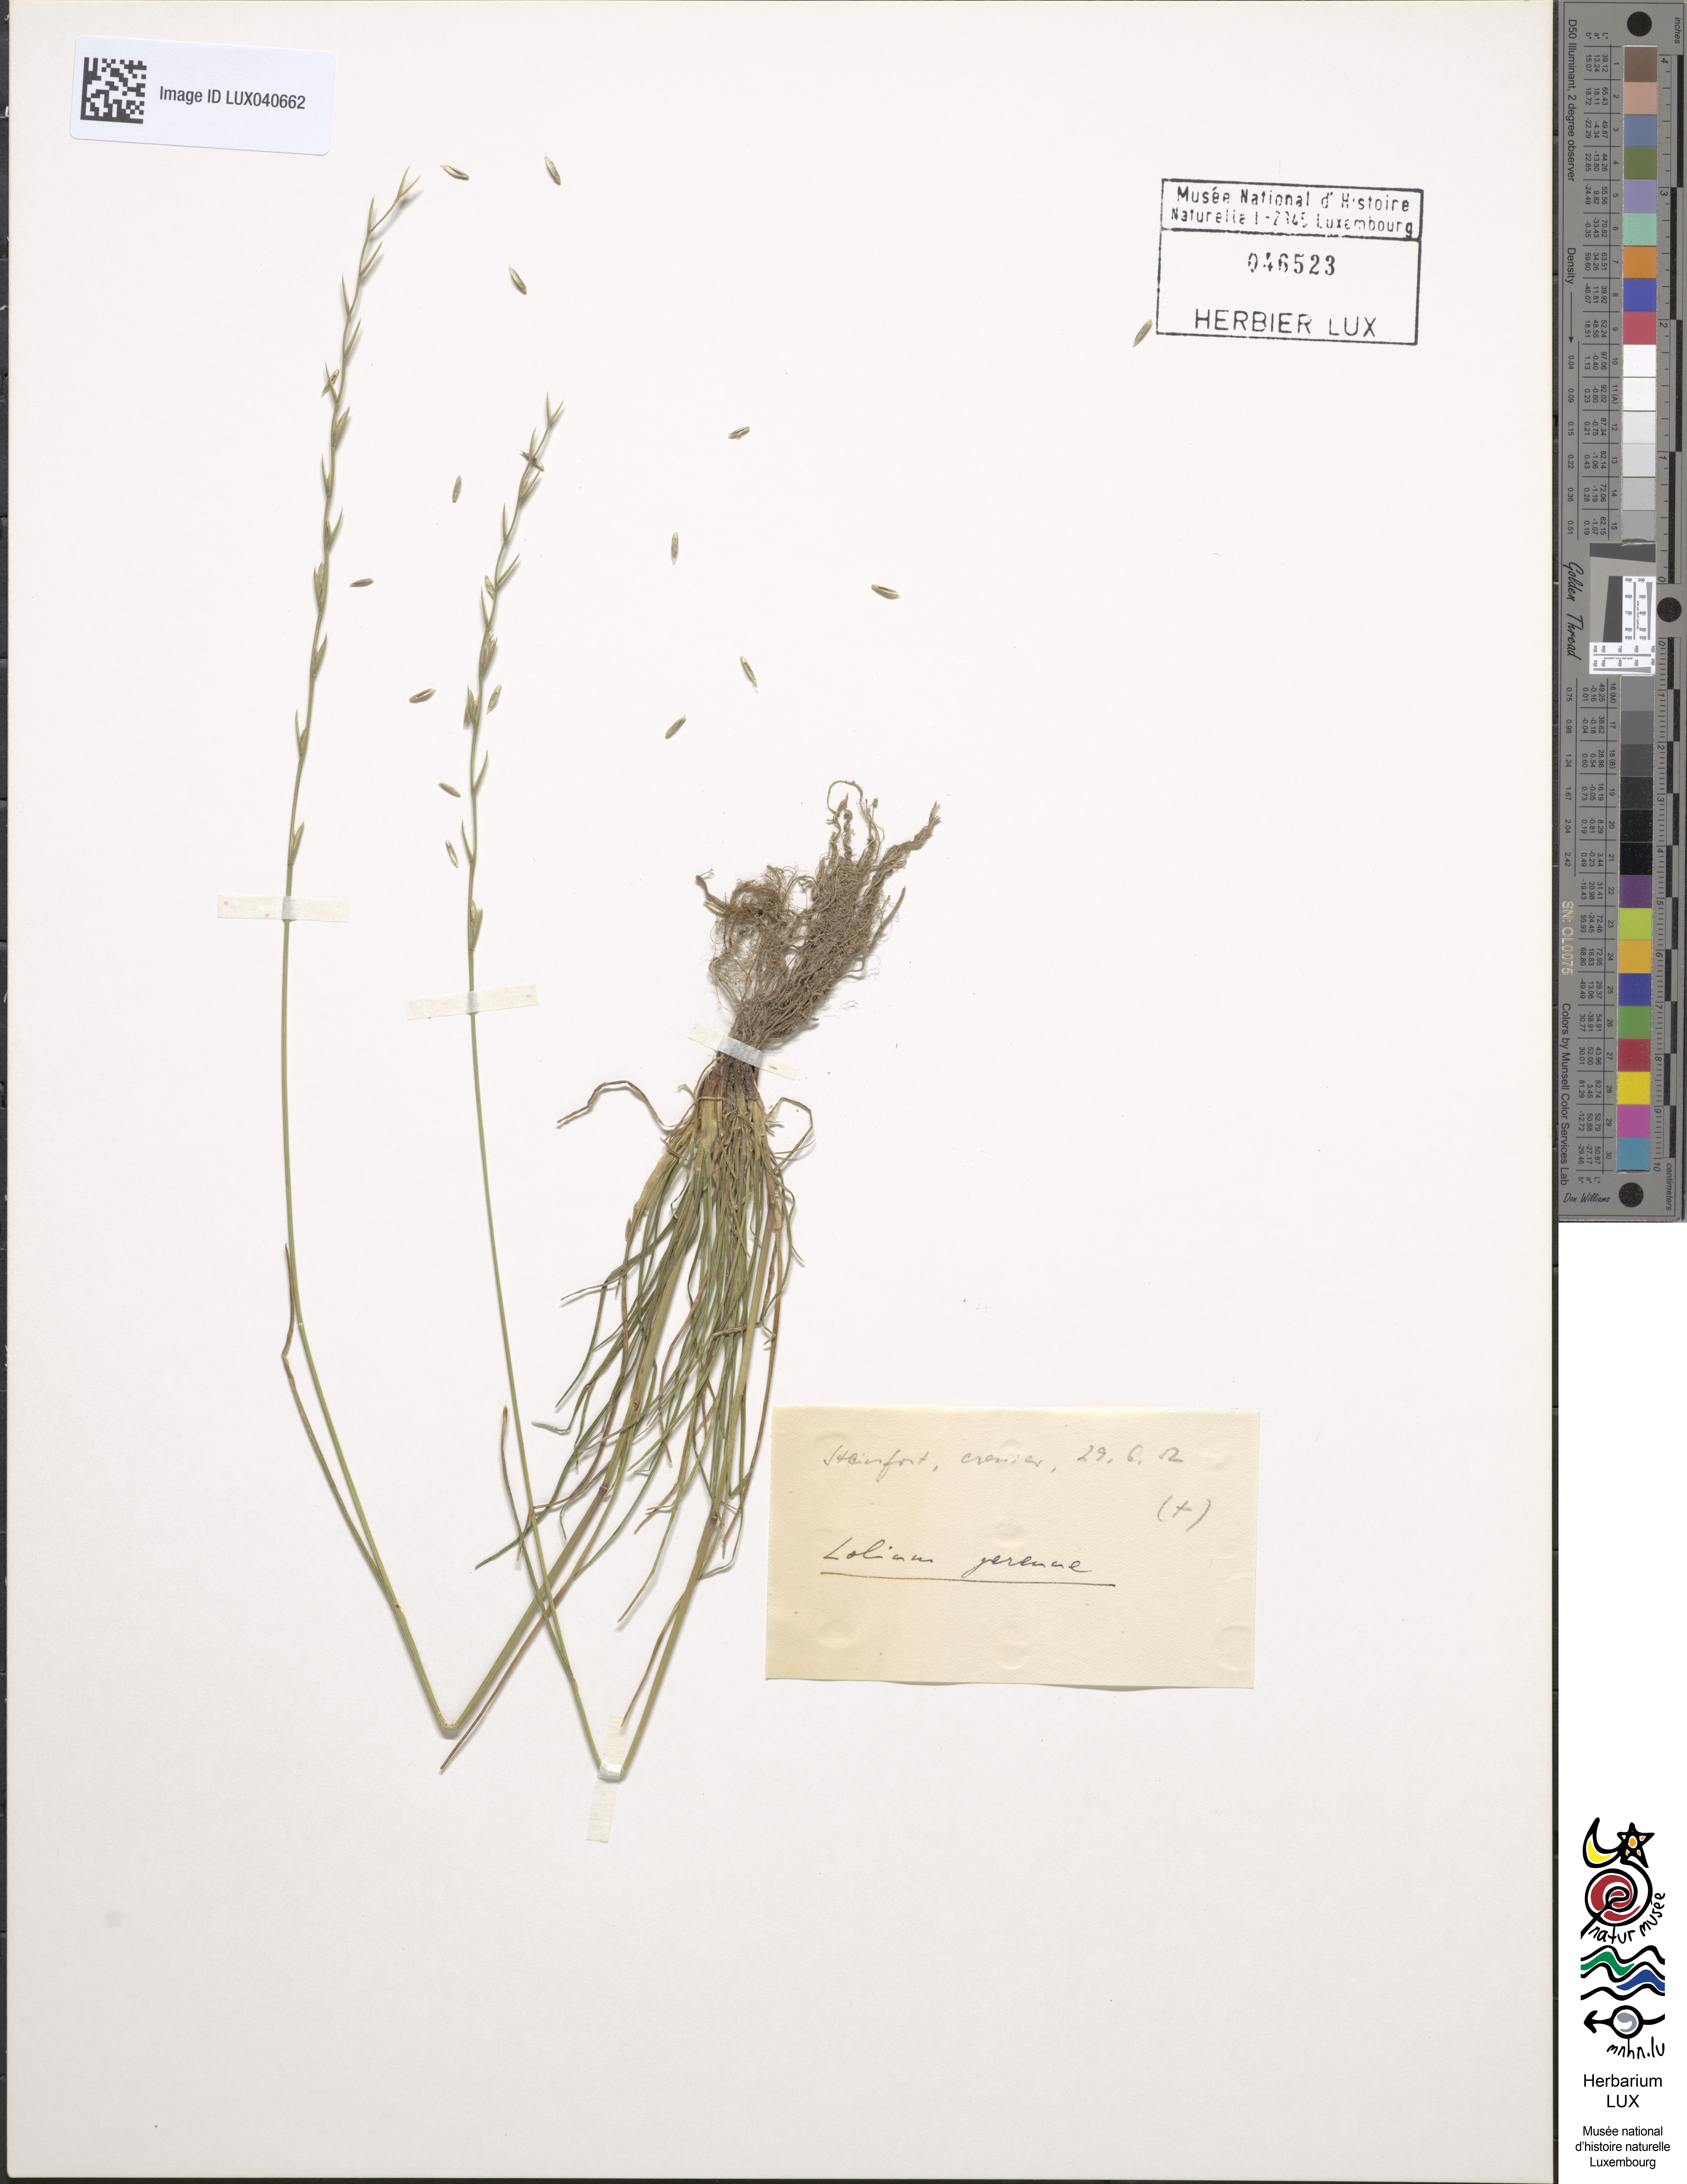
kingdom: Plantae
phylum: Tracheophyta
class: Liliopsida
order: Poales
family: Poaceae
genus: Lolium
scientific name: Lolium perenne
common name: Perennial ryegrass
